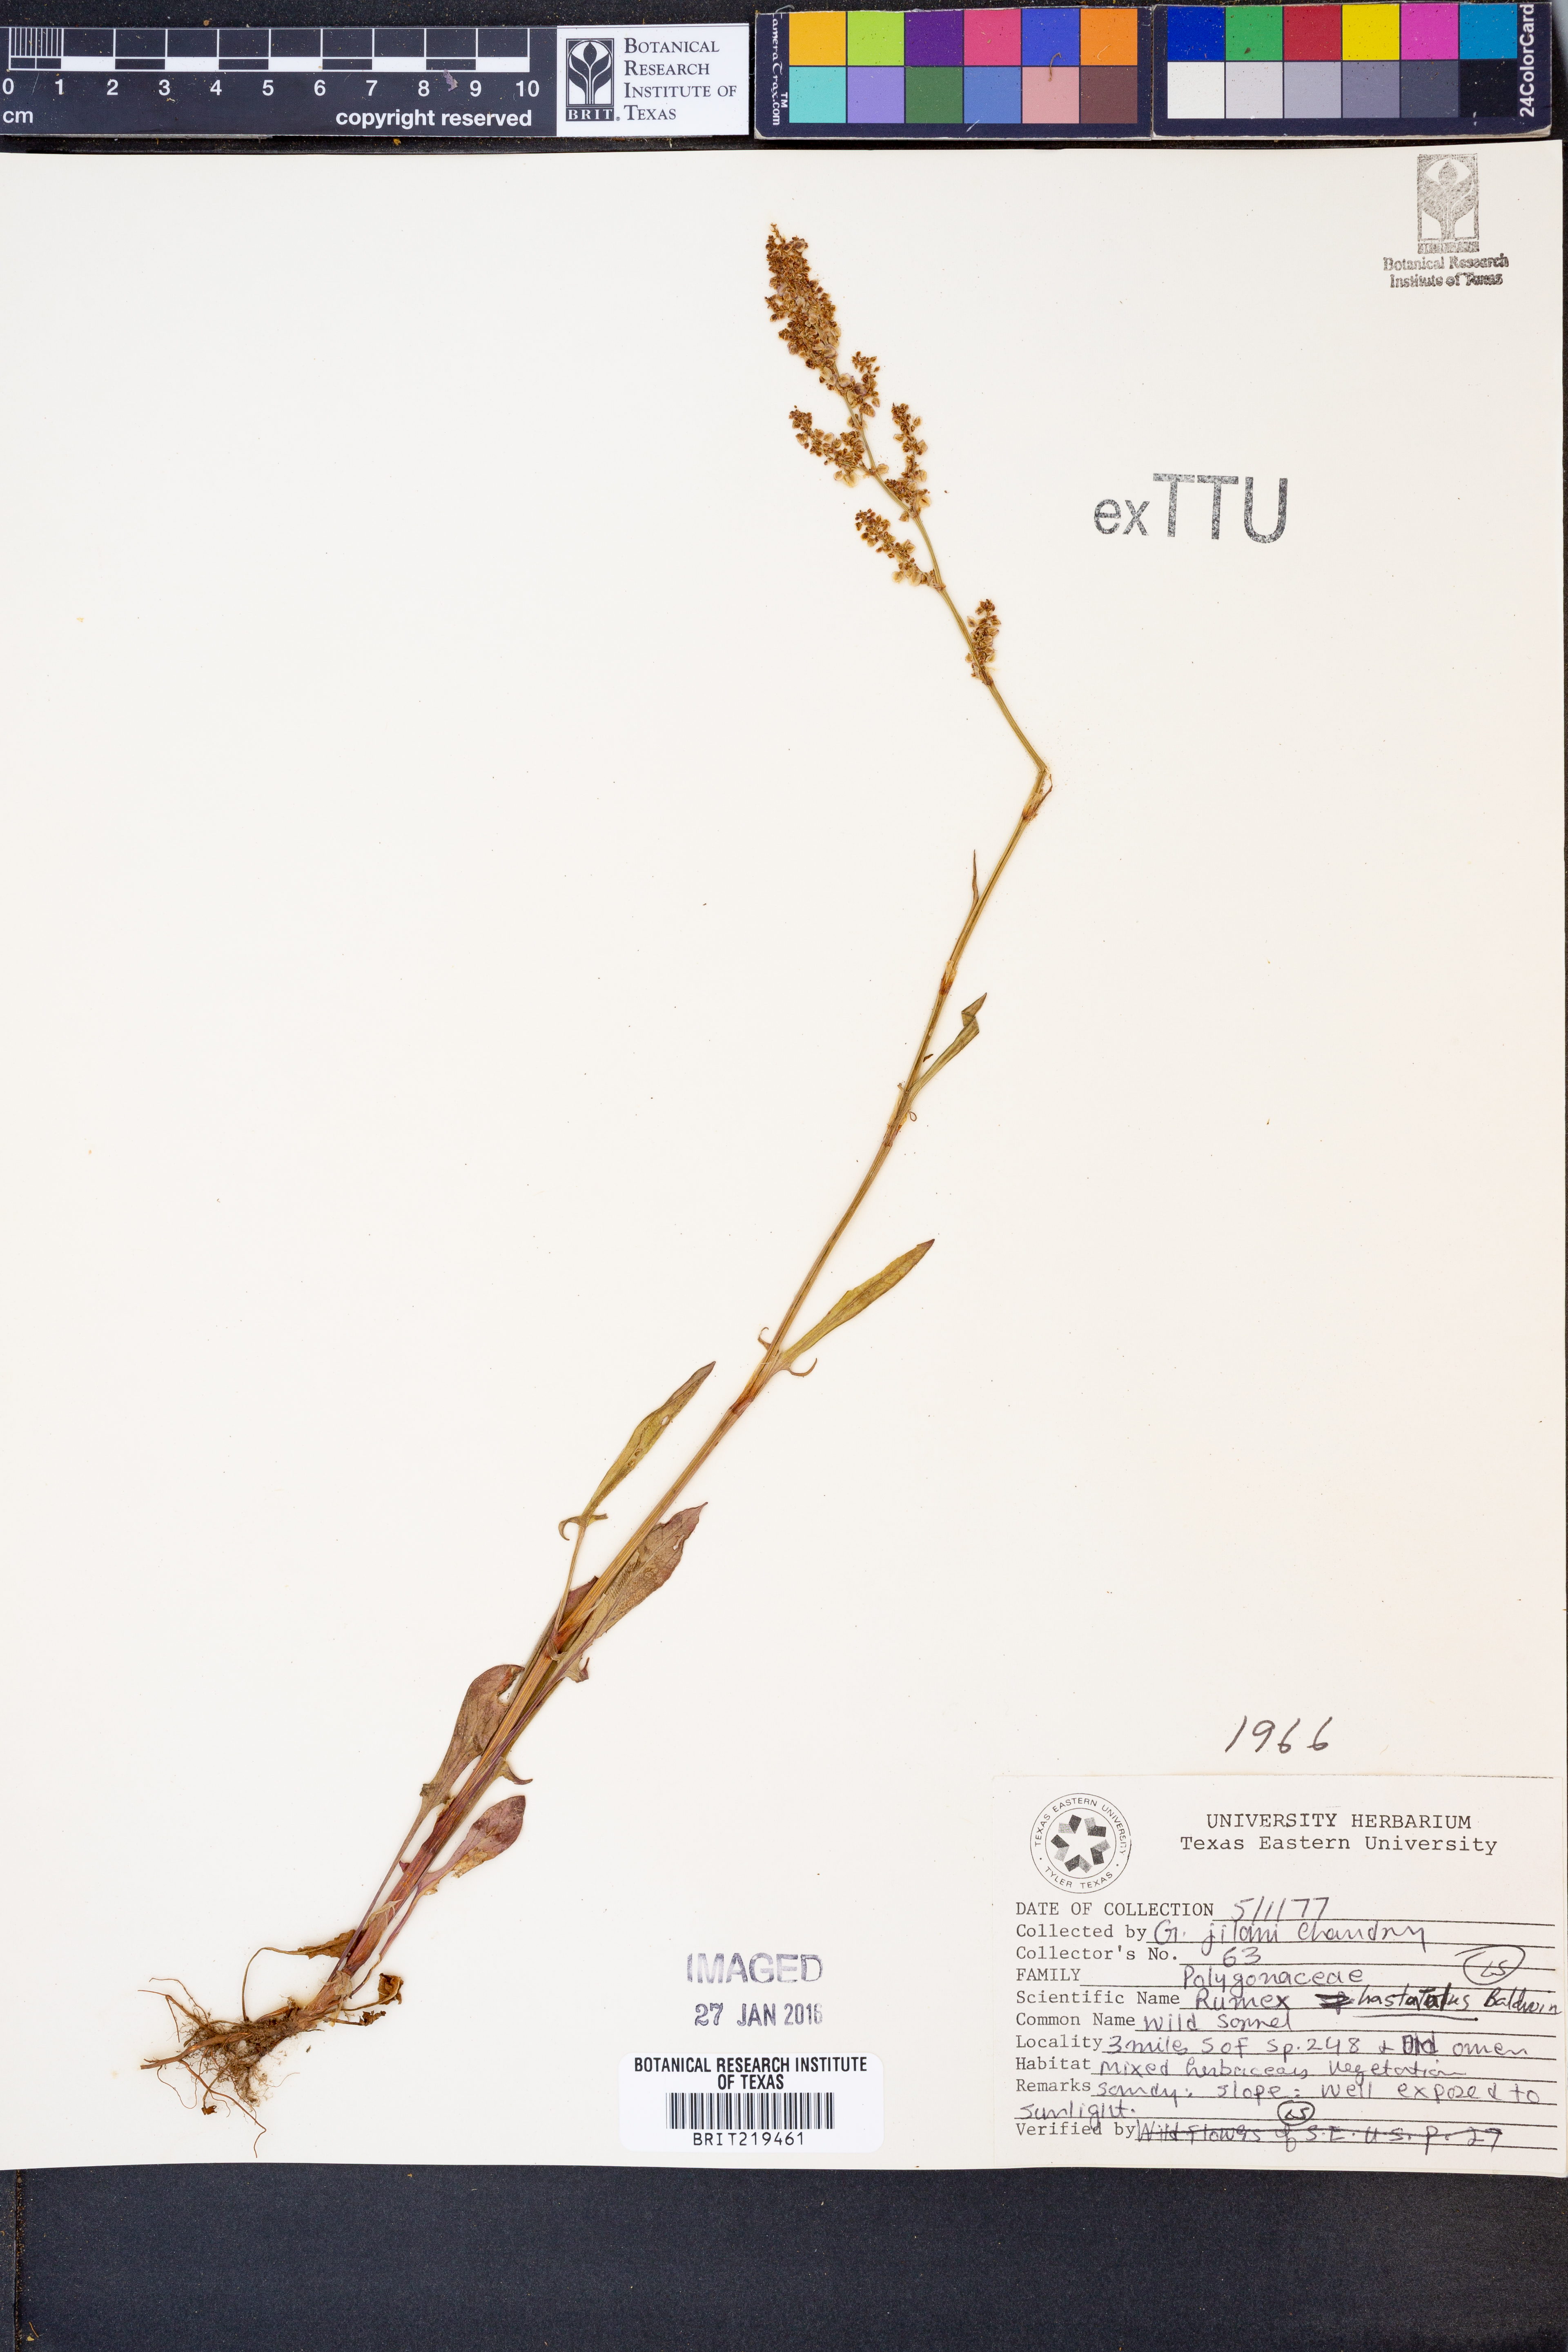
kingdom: Plantae
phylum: Tracheophyta
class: Magnoliopsida
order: Caryophyllales
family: Polygonaceae
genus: Rumex
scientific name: Rumex hastatulus
